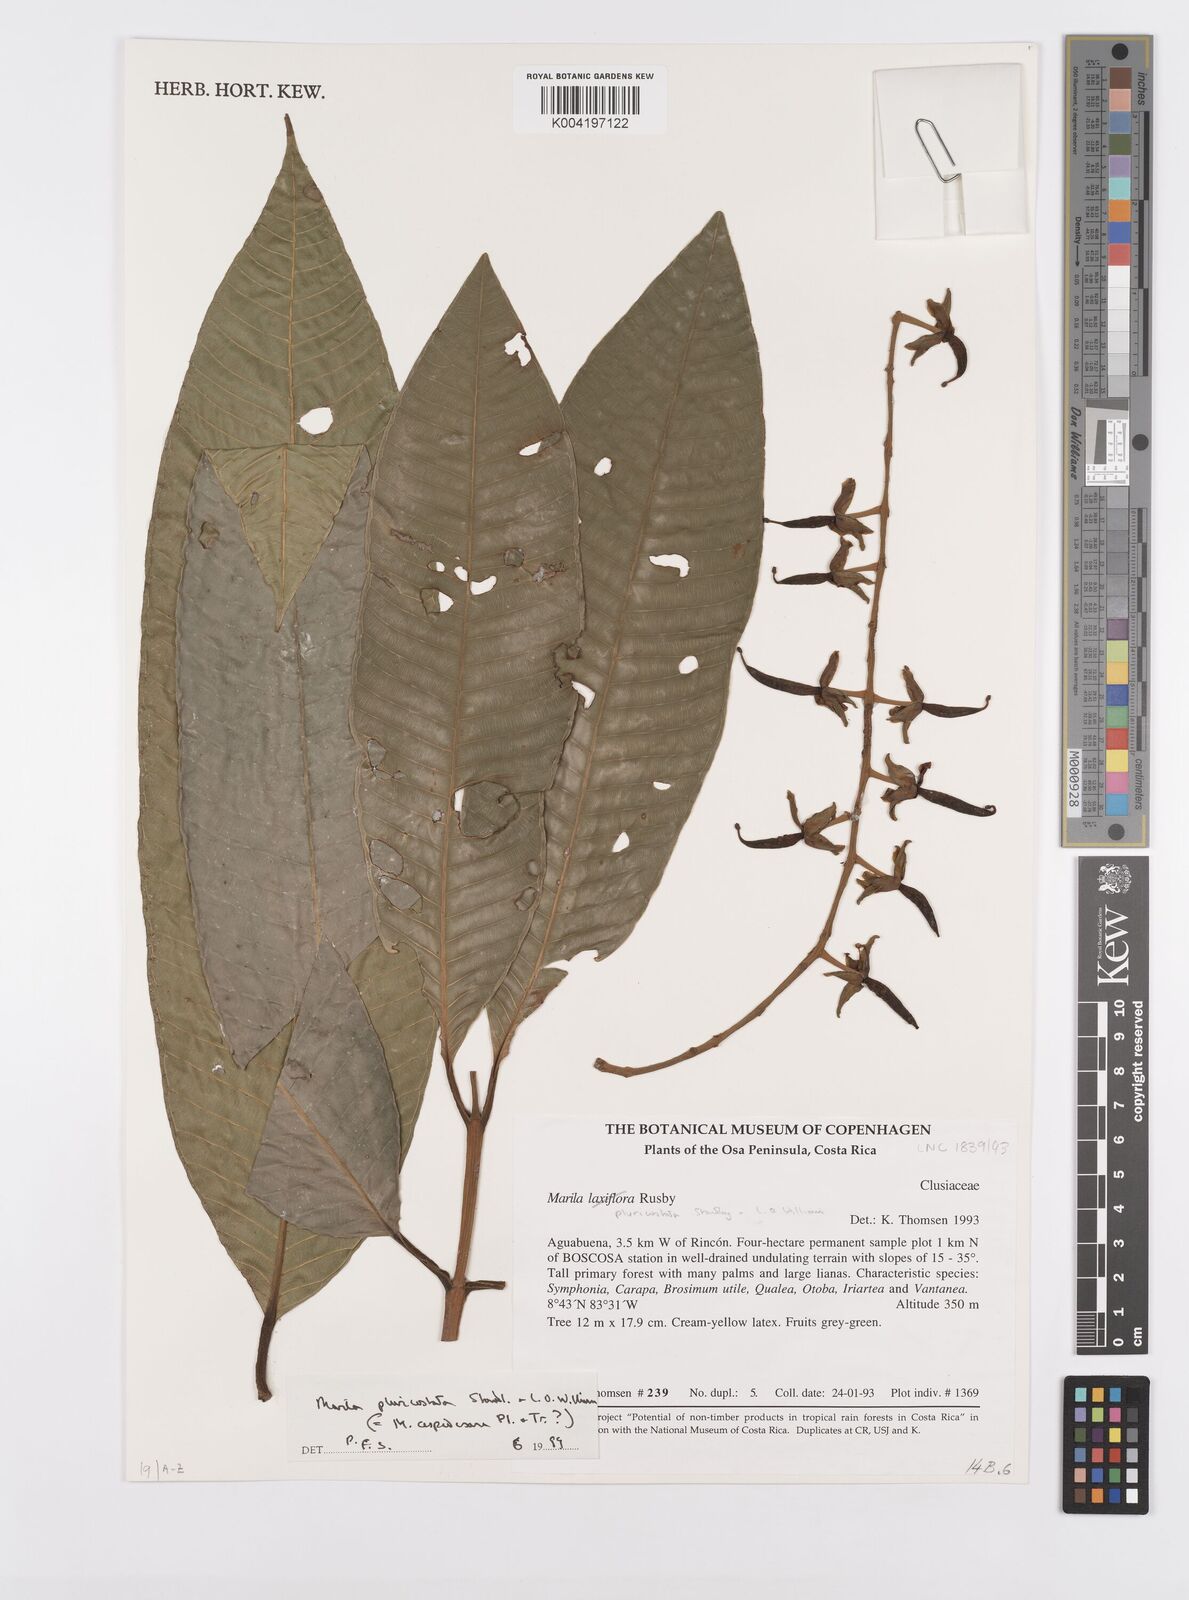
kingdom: Plantae
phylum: Tracheophyta
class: Magnoliopsida
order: Malpighiales
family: Calophyllaceae
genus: Marila
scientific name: Marila podantha
